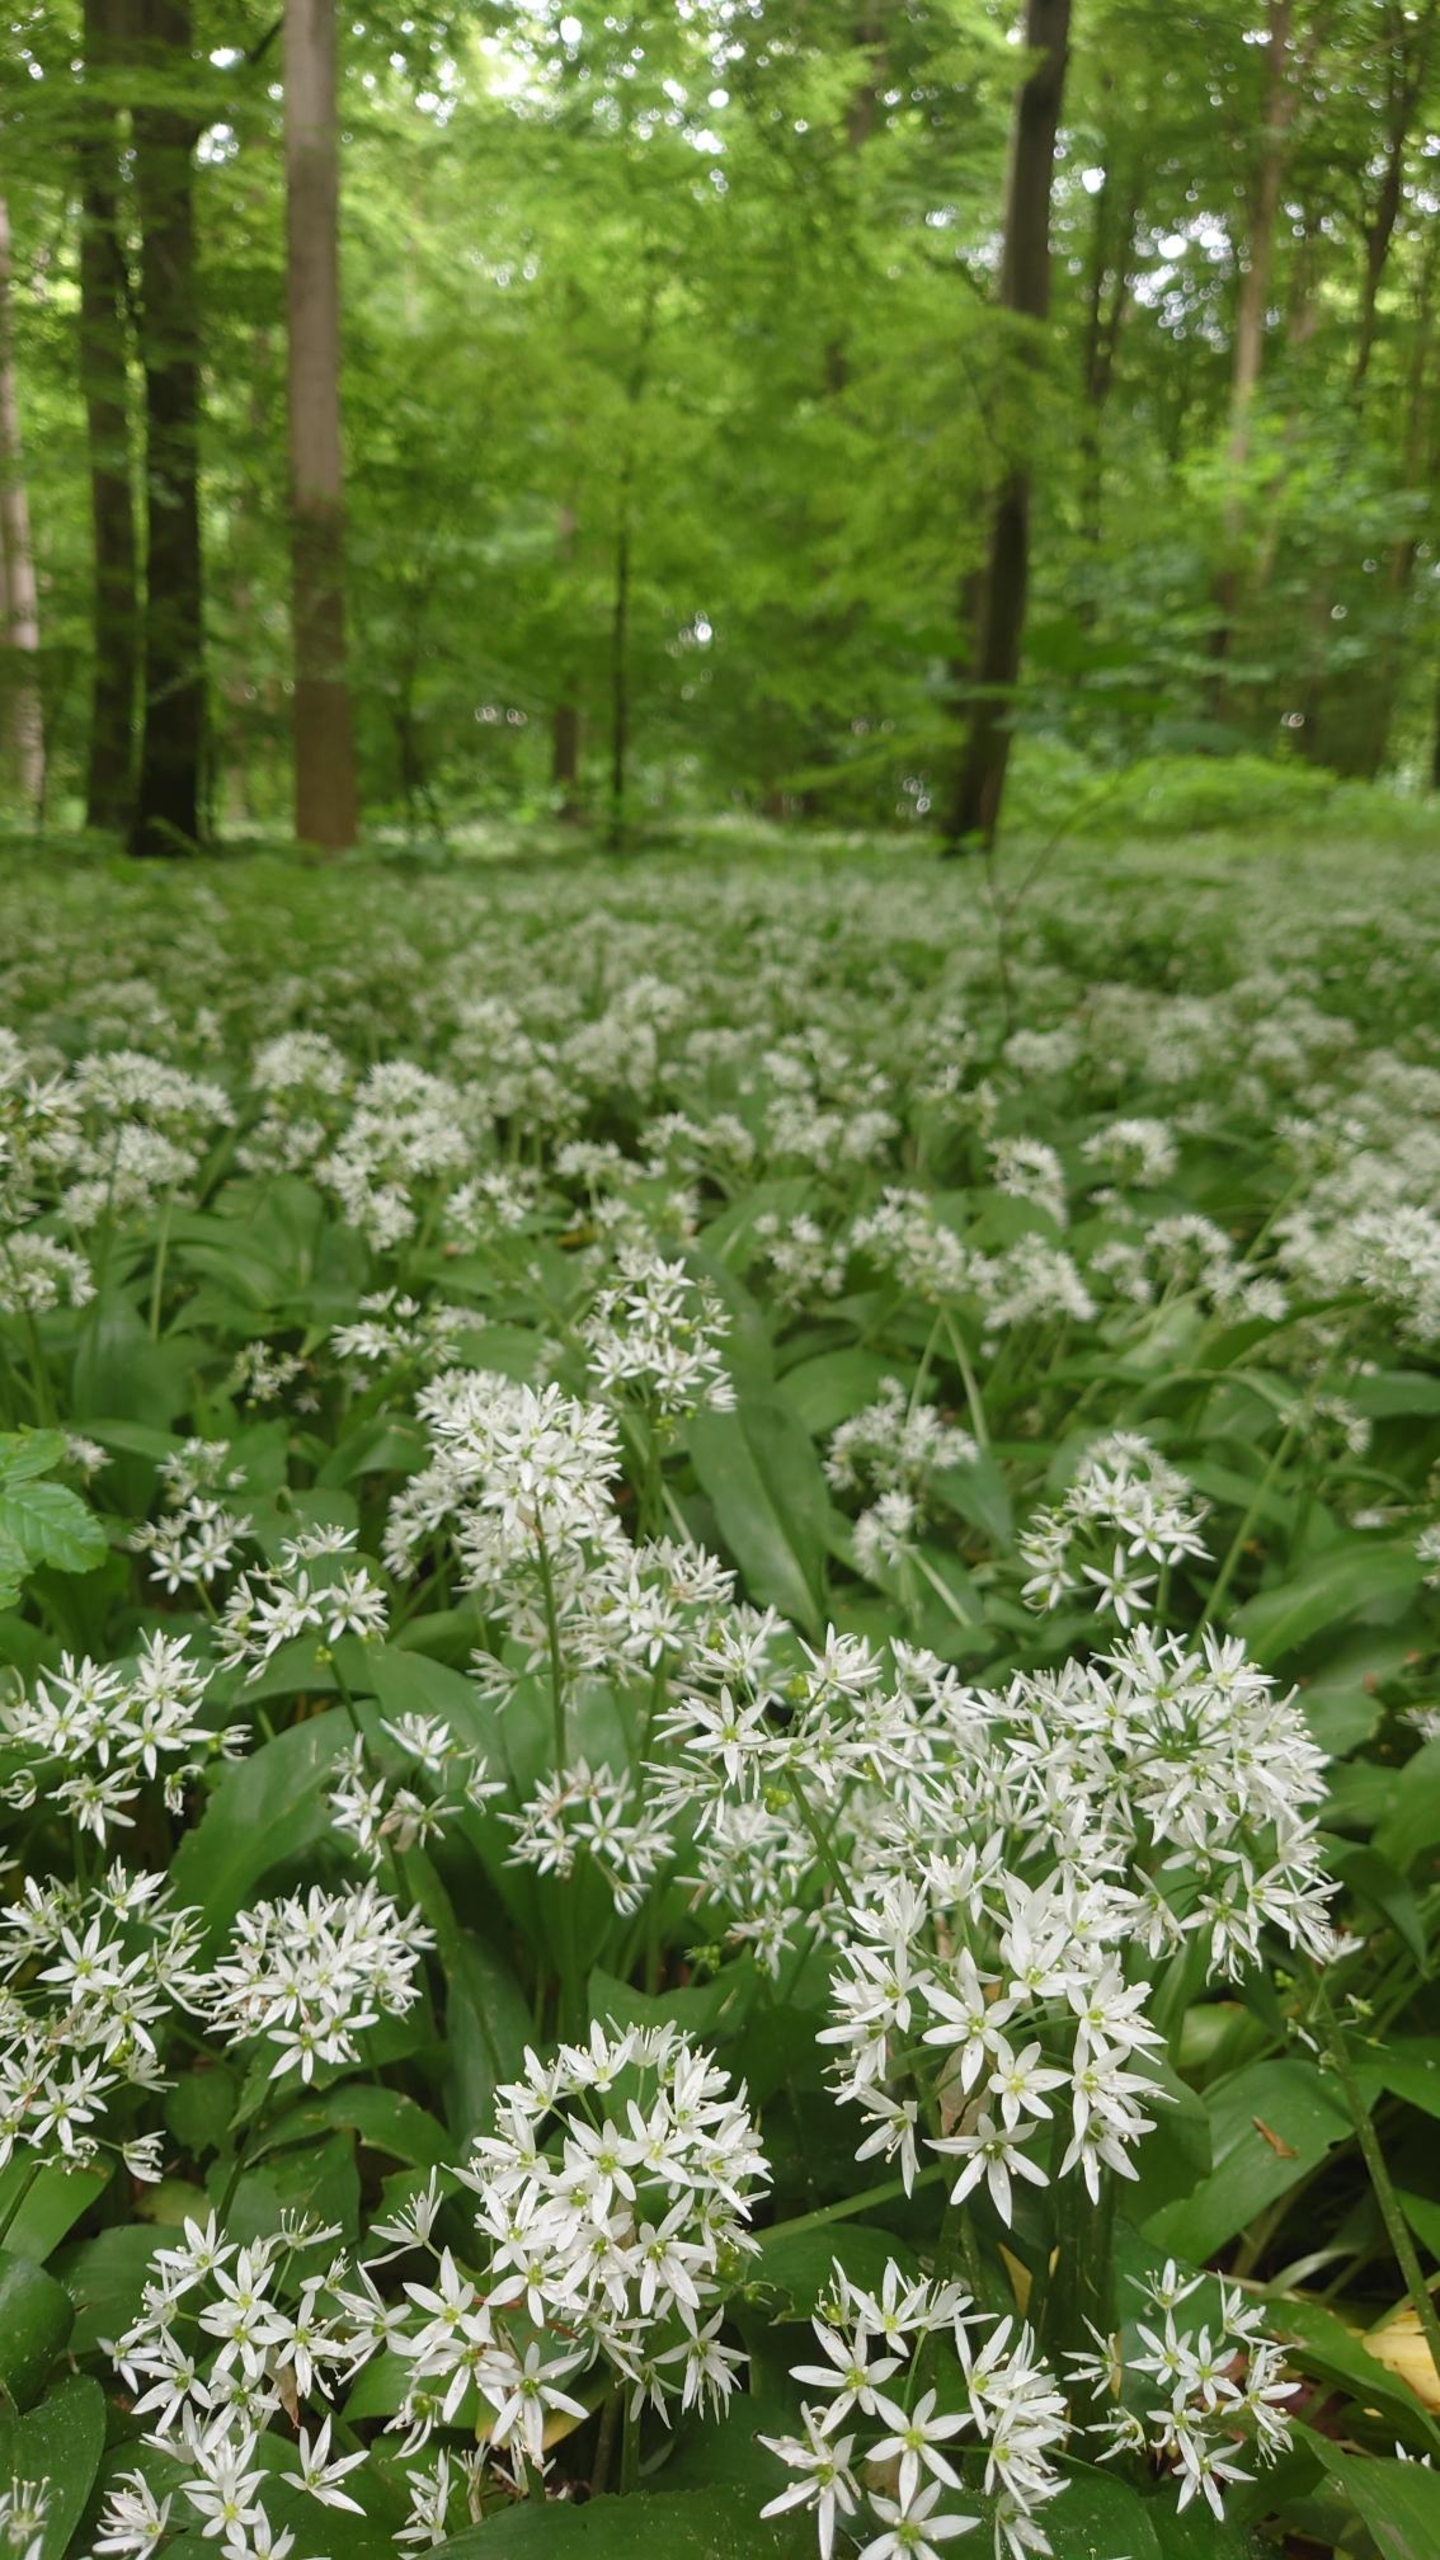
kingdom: Plantae
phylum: Tracheophyta
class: Liliopsida
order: Asparagales
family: Amaryllidaceae
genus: Allium
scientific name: Allium ursinum
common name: Rams-løg
